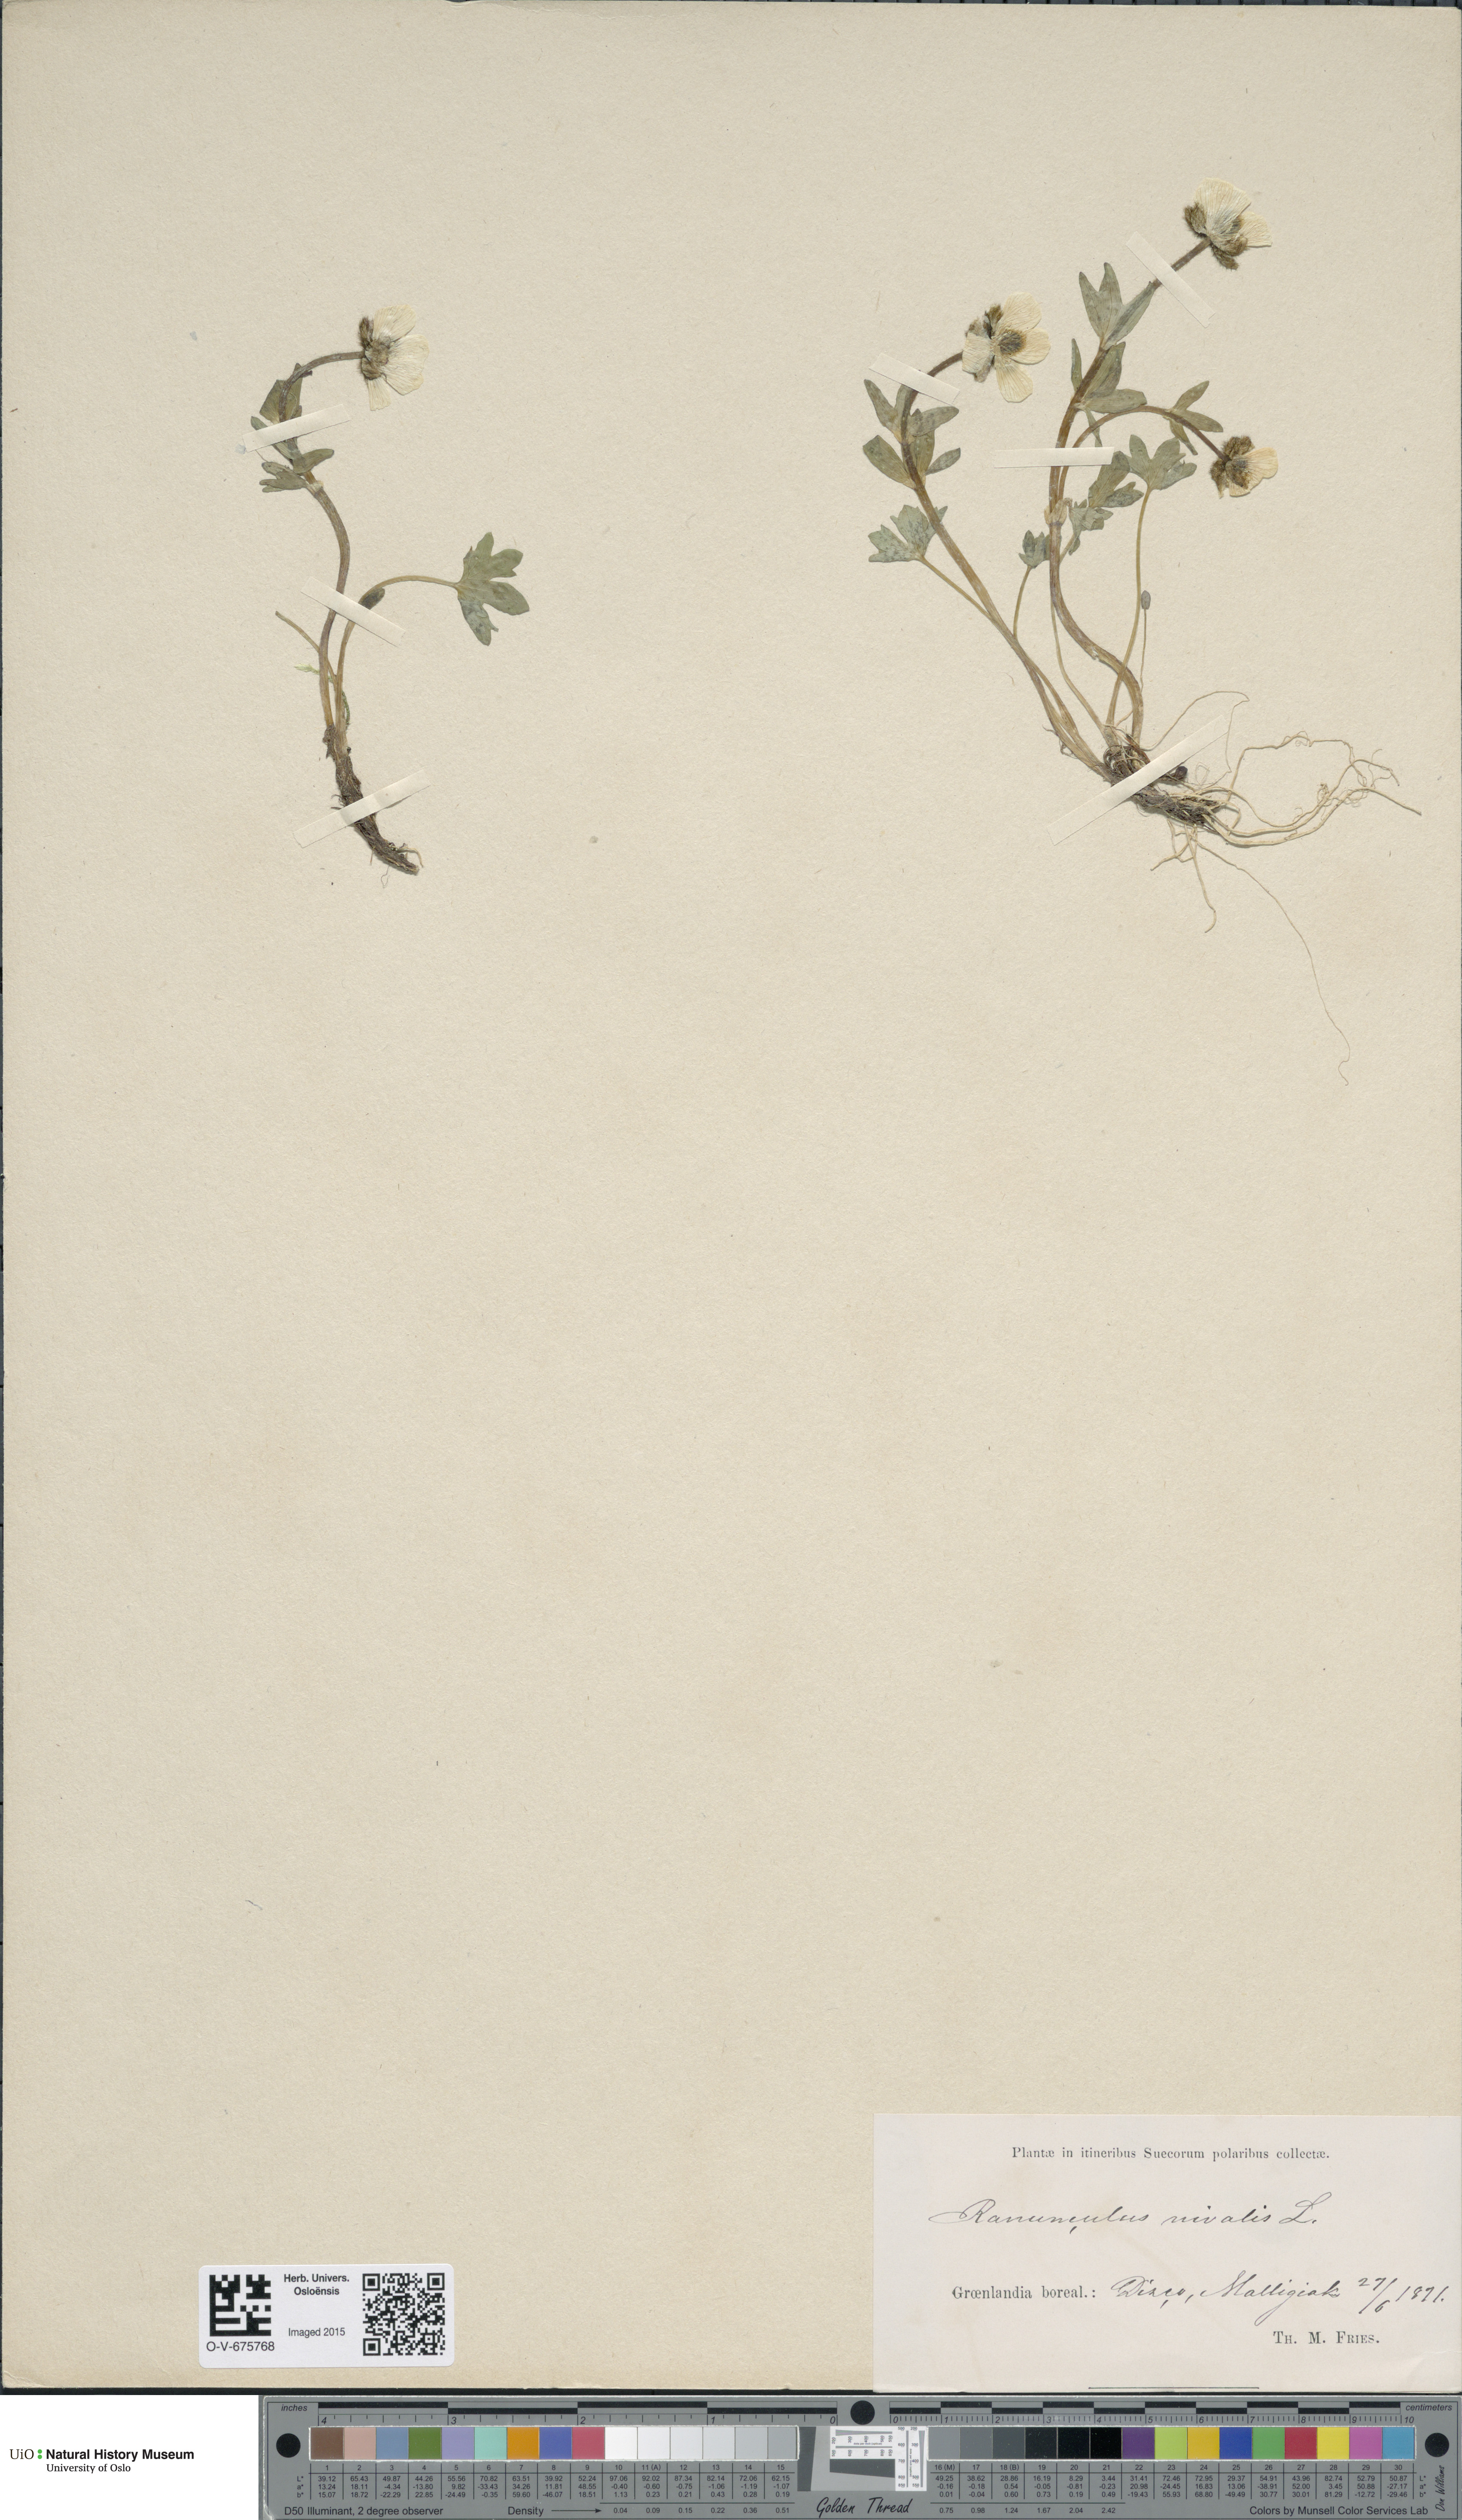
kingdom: Plantae
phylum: Tracheophyta
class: Magnoliopsida
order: Ranunculales
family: Ranunculaceae
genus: Ranunculus
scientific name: Ranunculus nivalis
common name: Snow buttercup
